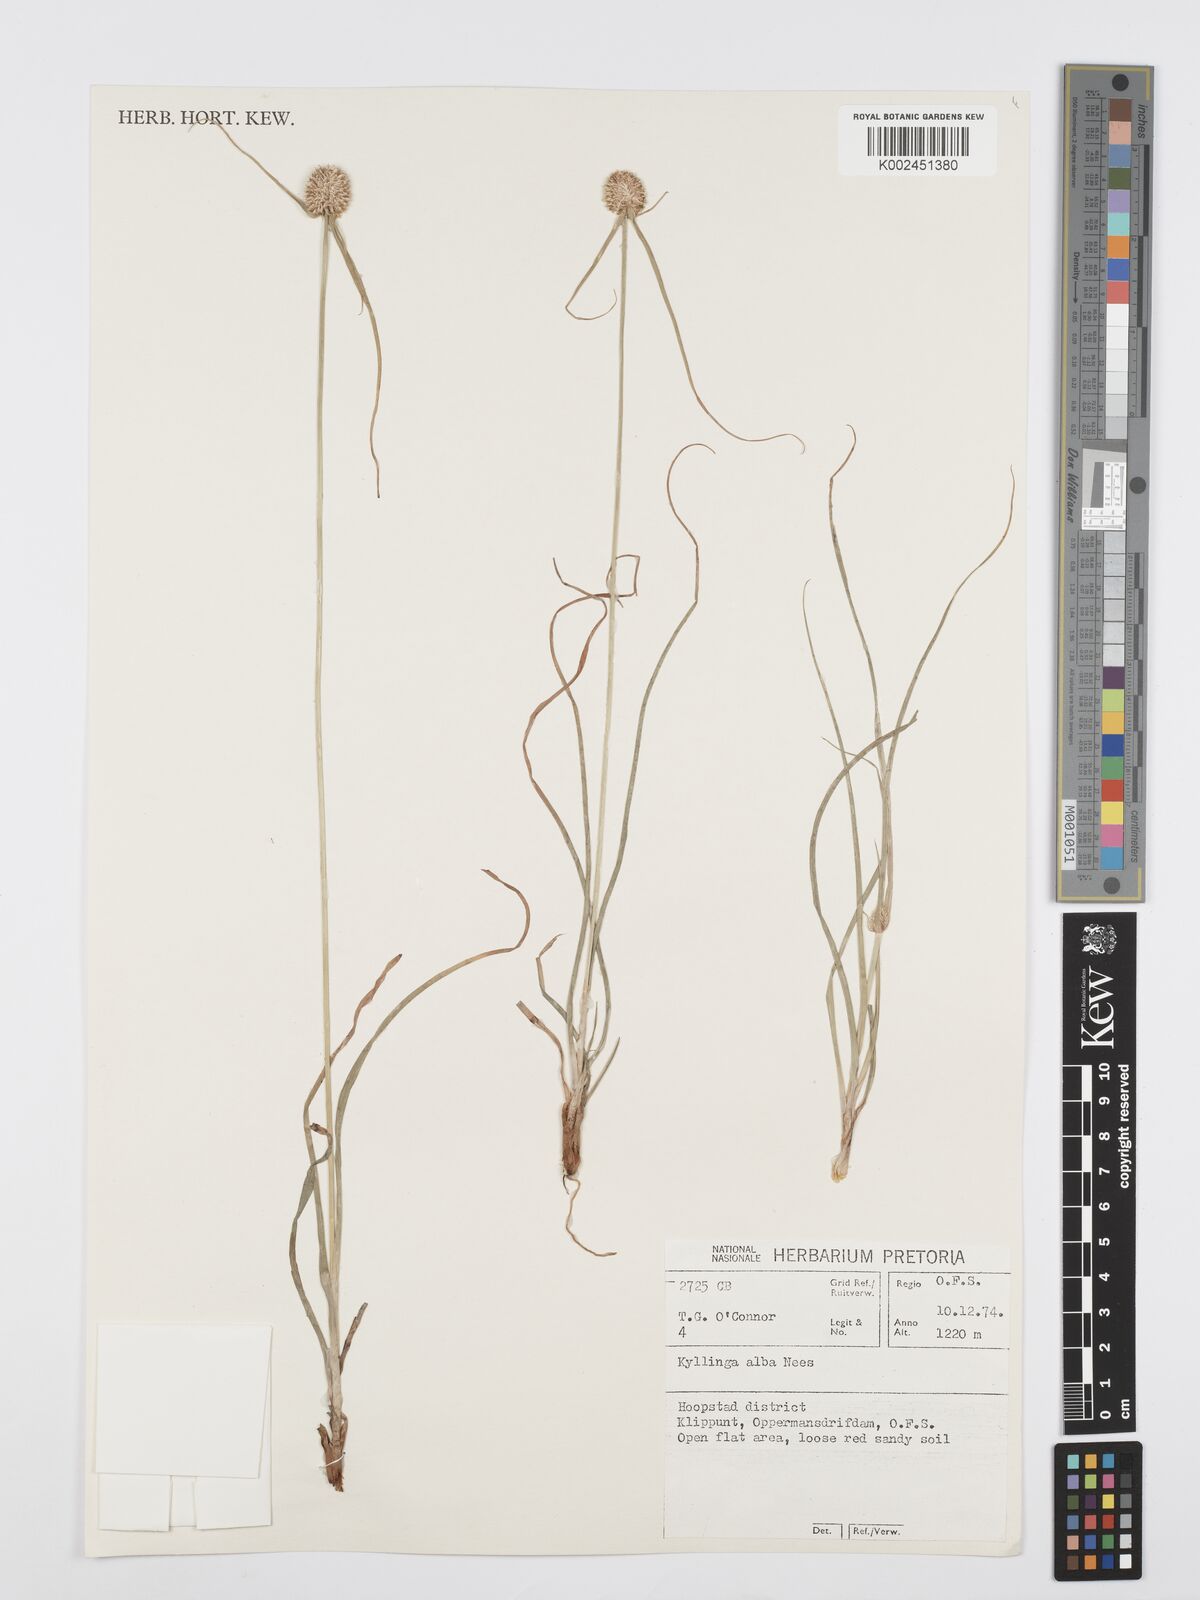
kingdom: Plantae
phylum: Tracheophyta
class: Liliopsida
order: Poales
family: Cyperaceae
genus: Cyperus
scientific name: Cyperus
